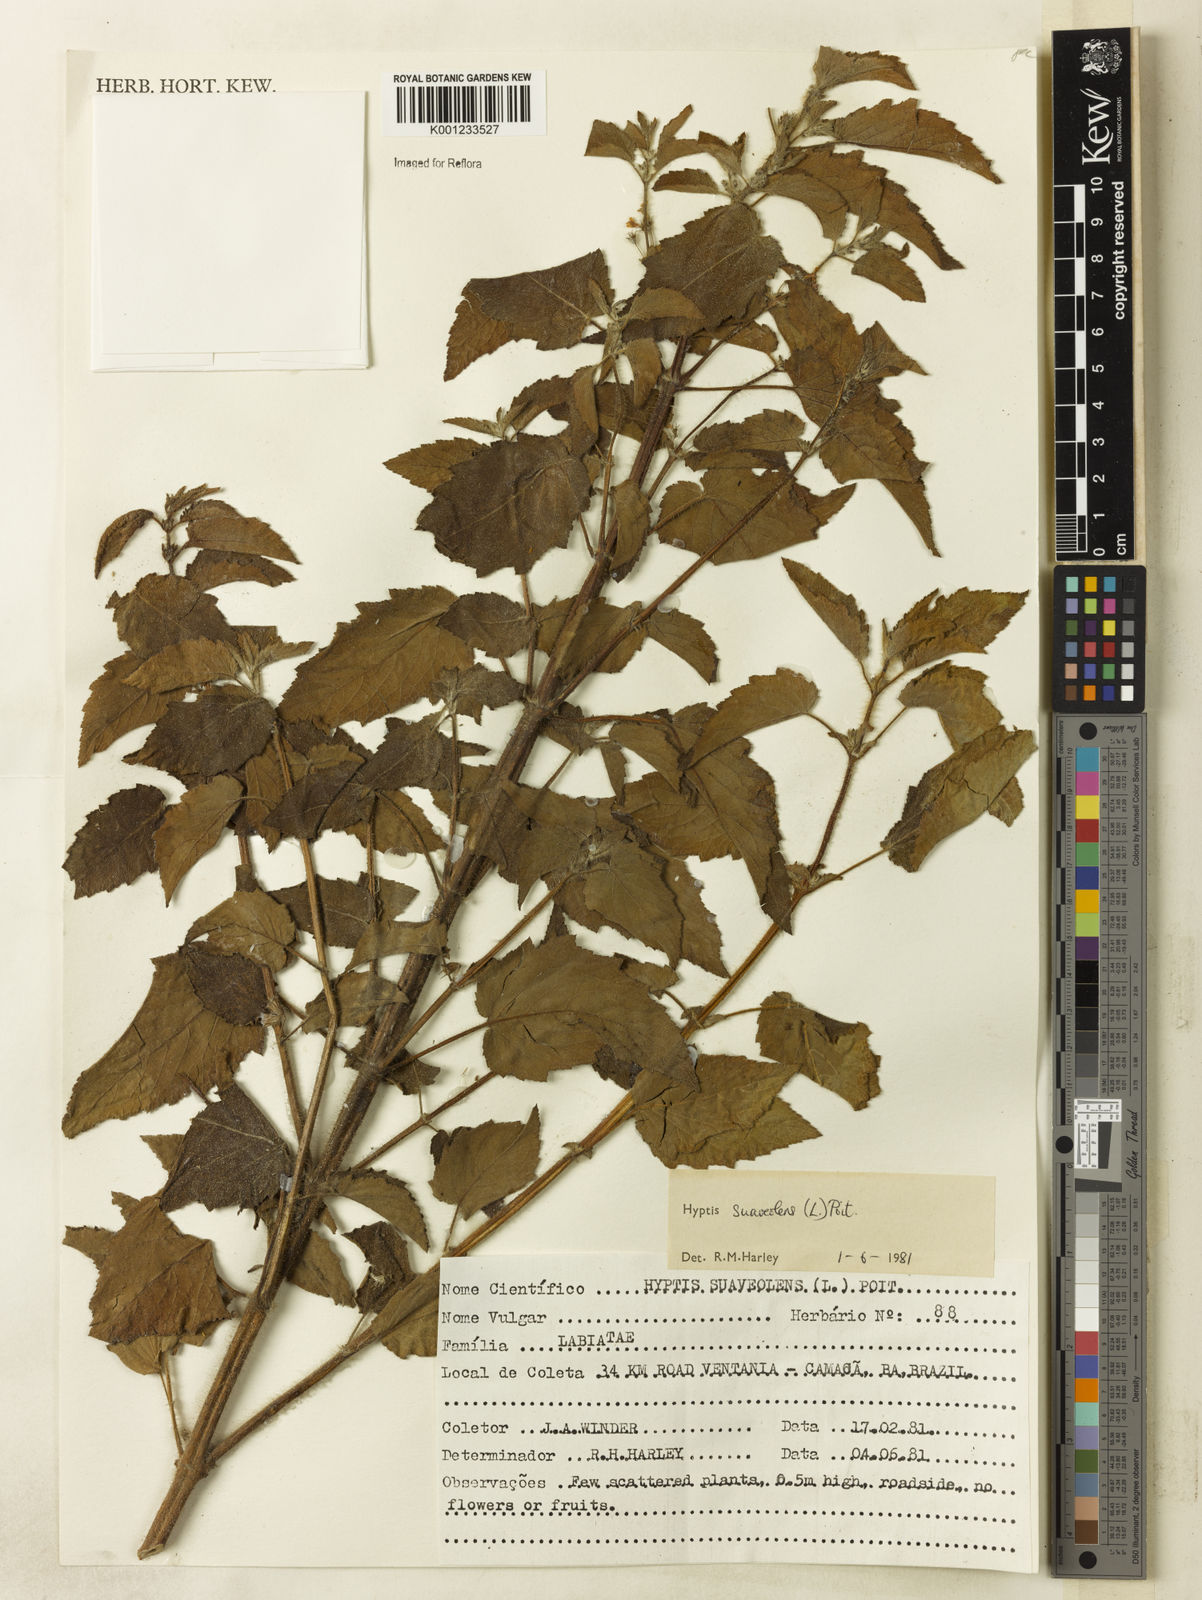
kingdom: Plantae
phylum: Tracheophyta
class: Magnoliopsida
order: Lamiales
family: Lamiaceae
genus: Mesosphaerum
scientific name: Mesosphaerum suaveolens
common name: Pignut
